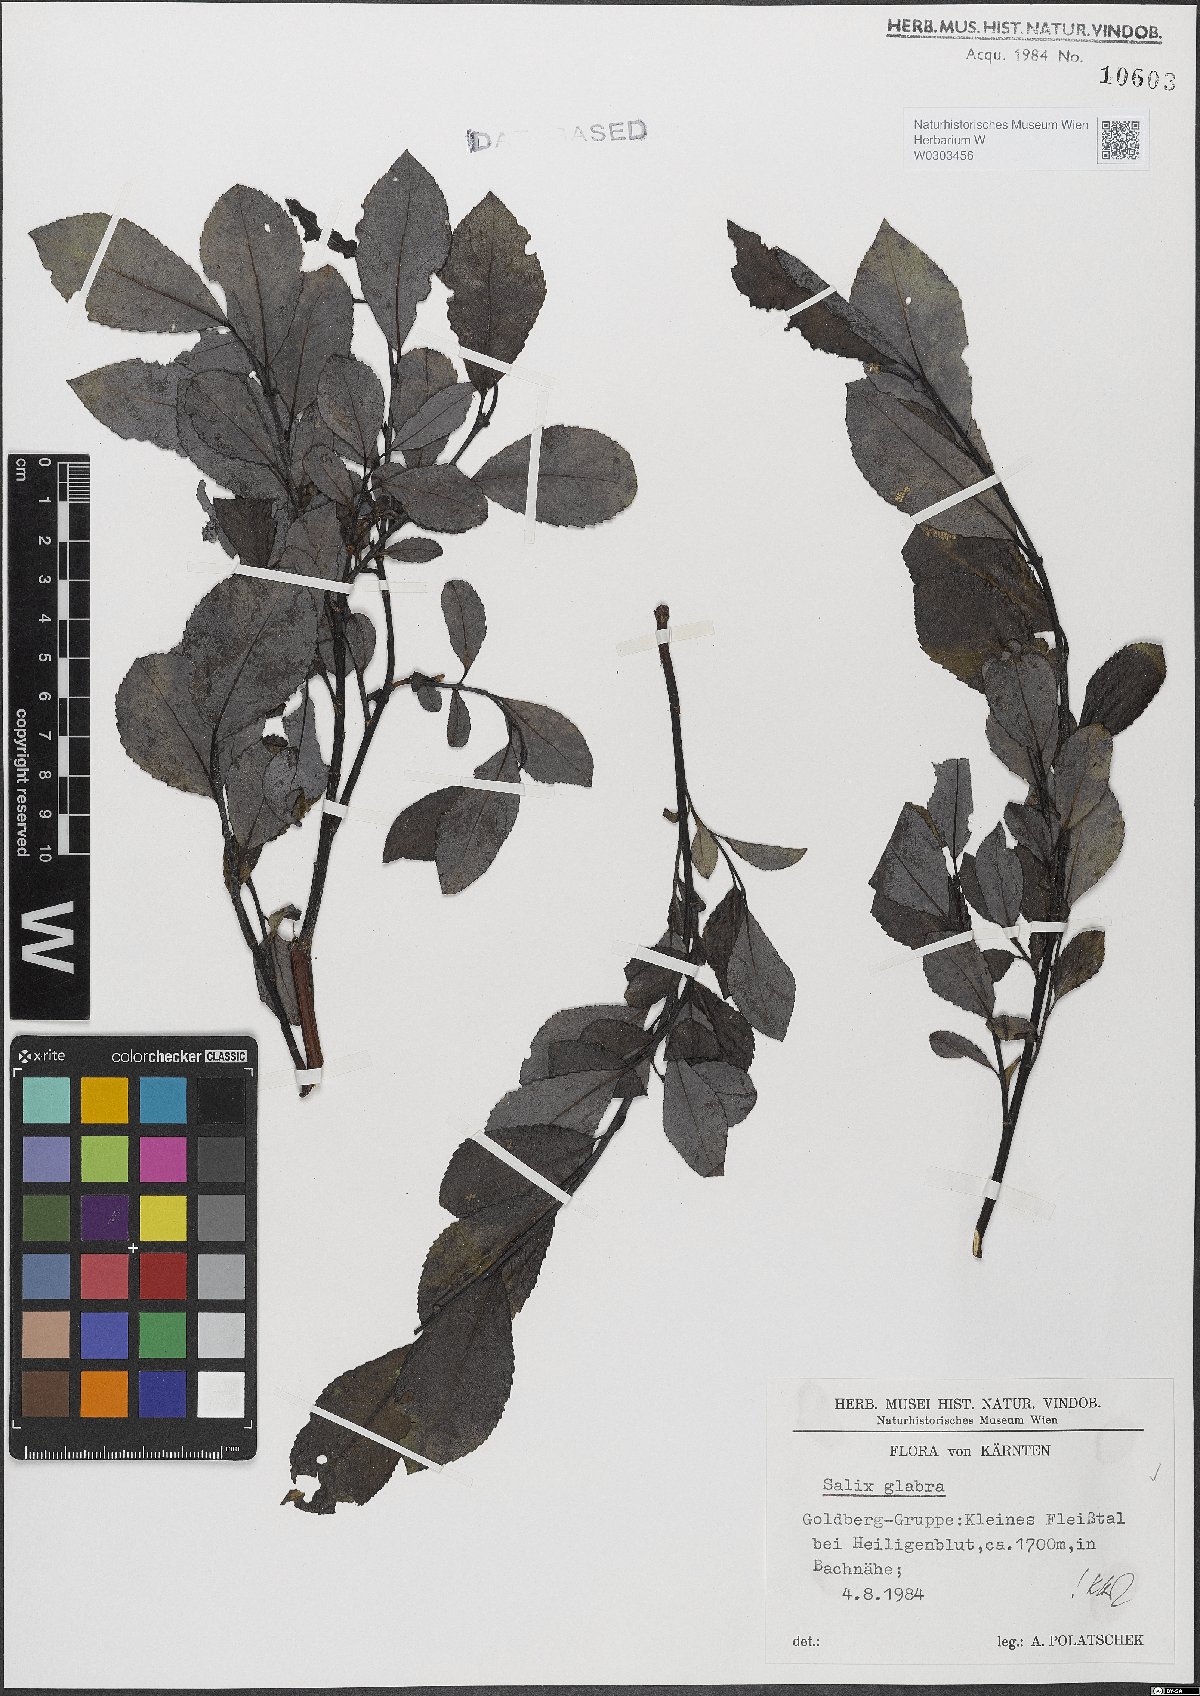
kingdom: Plantae
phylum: Tracheophyta
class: Magnoliopsida
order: Malpighiales
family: Salicaceae
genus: Salix
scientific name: Salix glabra
